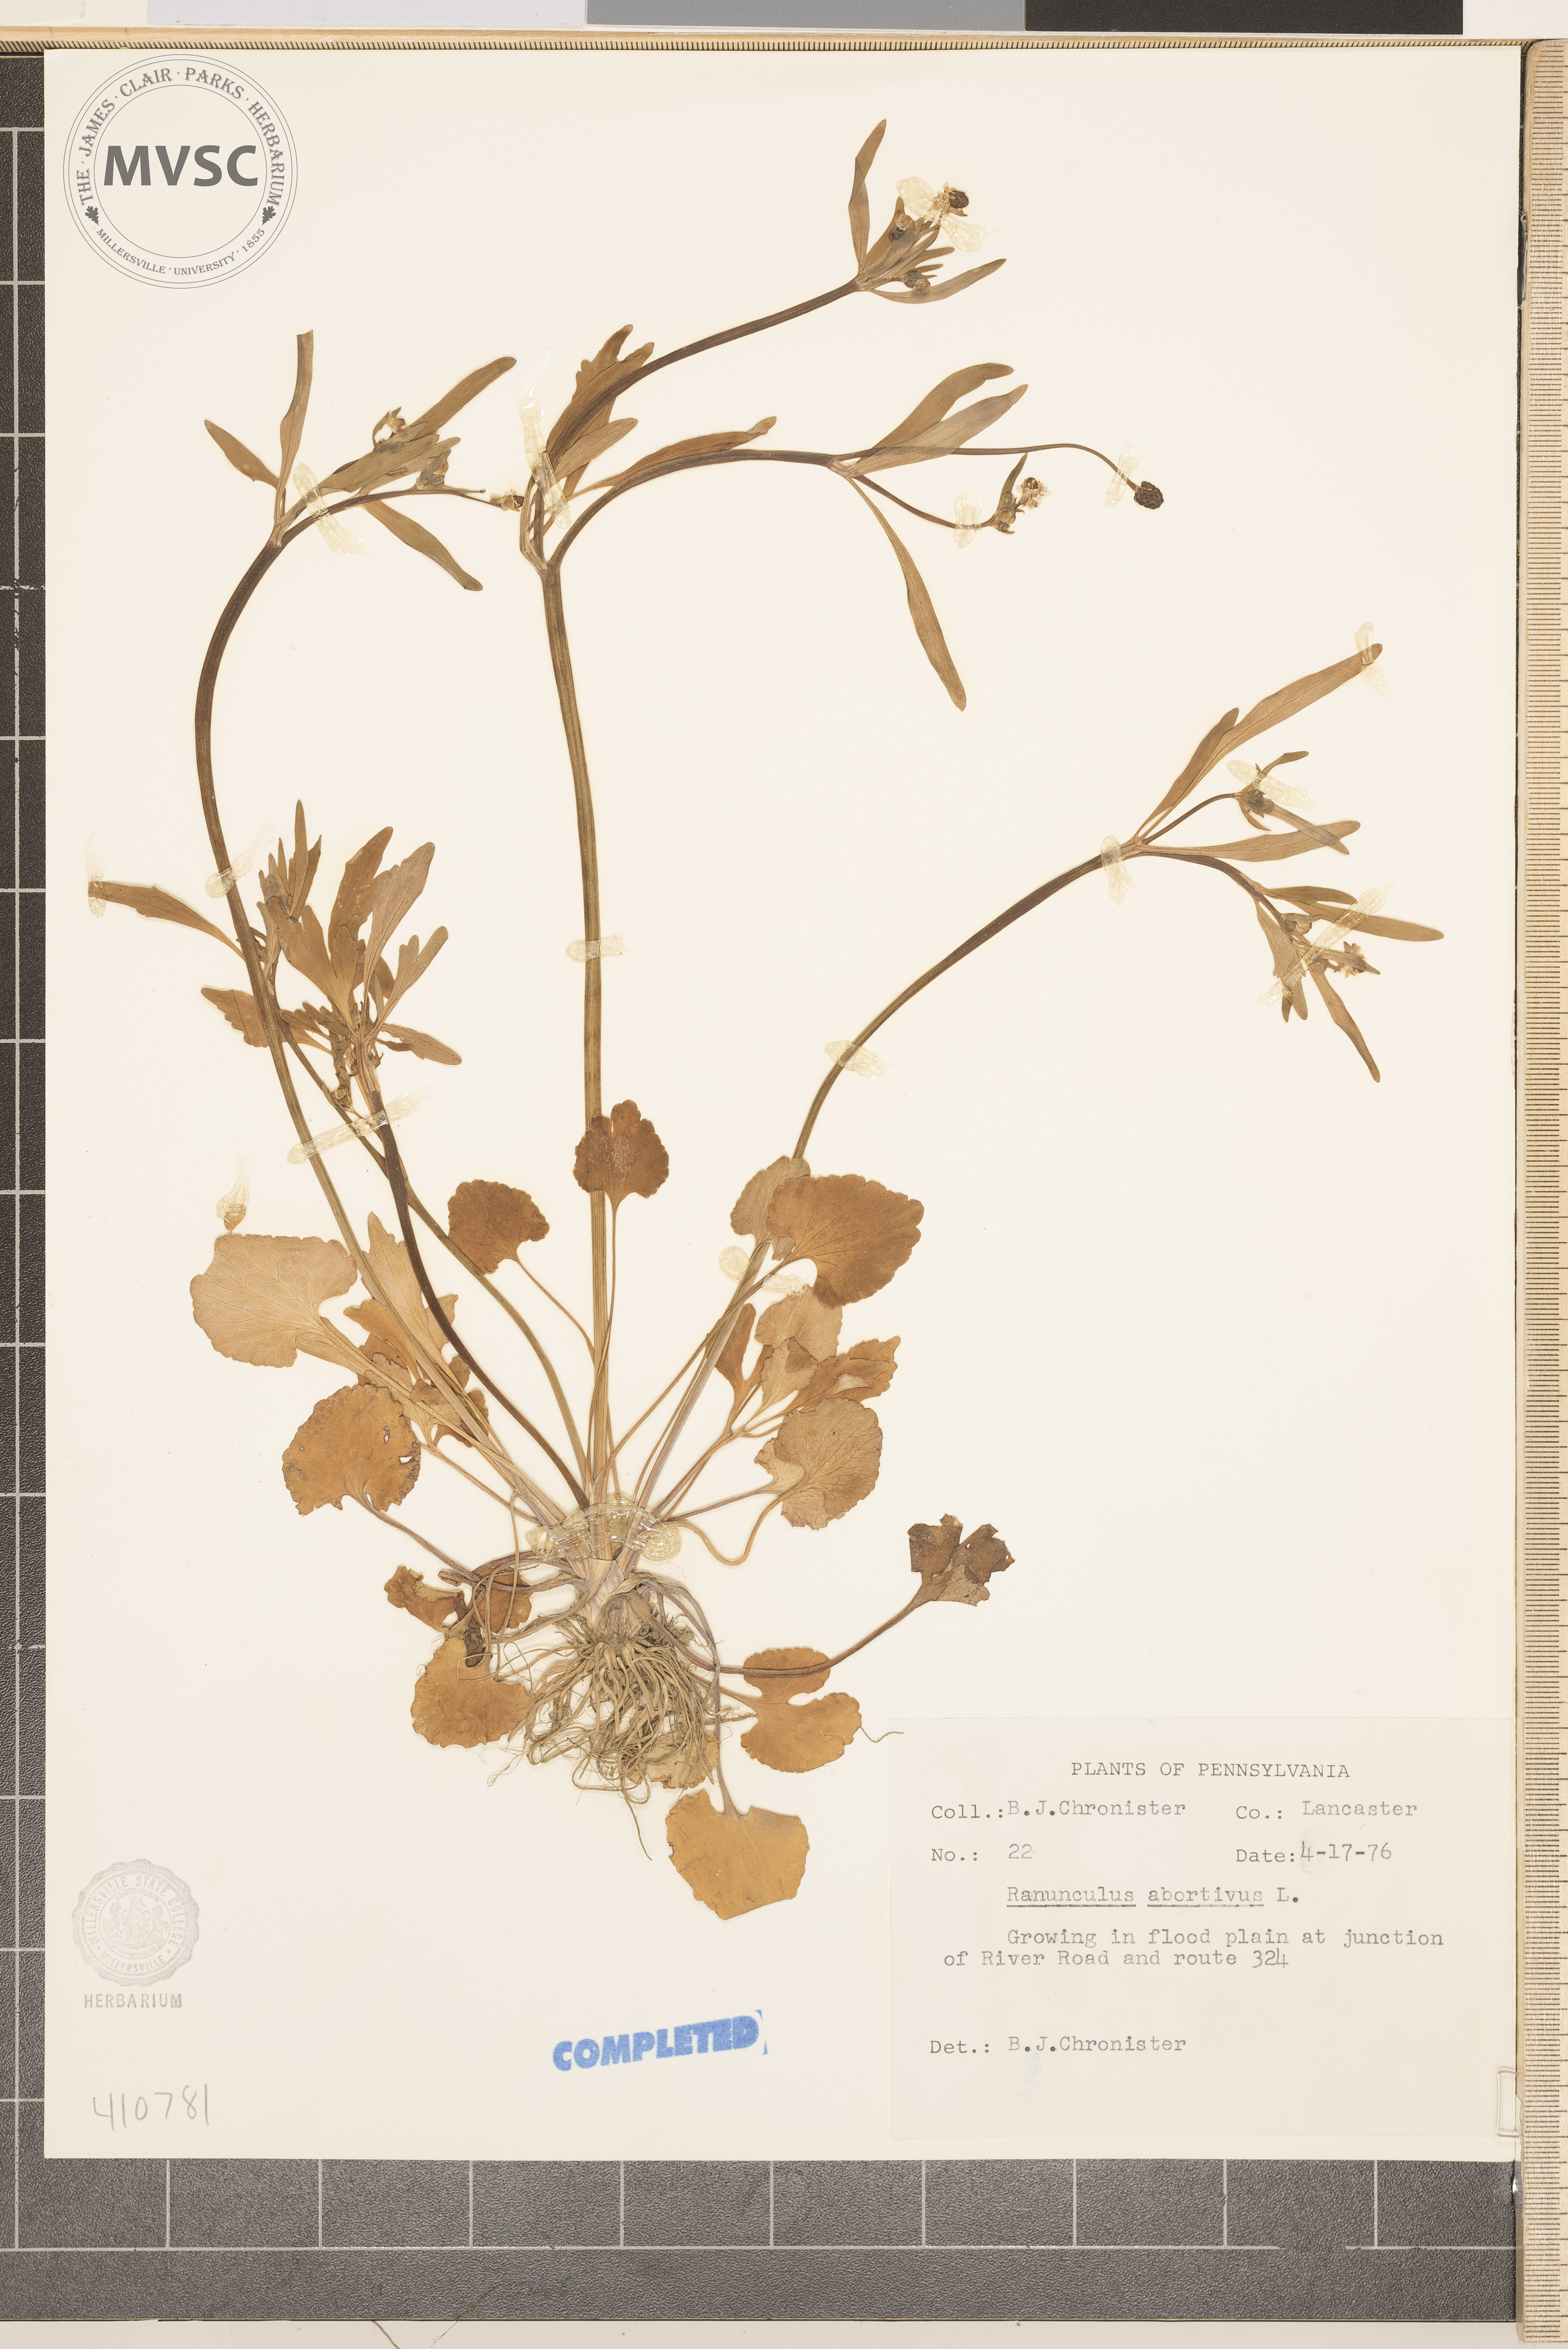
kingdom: Plantae
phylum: Tracheophyta
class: Magnoliopsida
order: Ranunculales
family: Ranunculaceae
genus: Ranunculus
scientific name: Ranunculus abortivus
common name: small-flowered crowfoot
